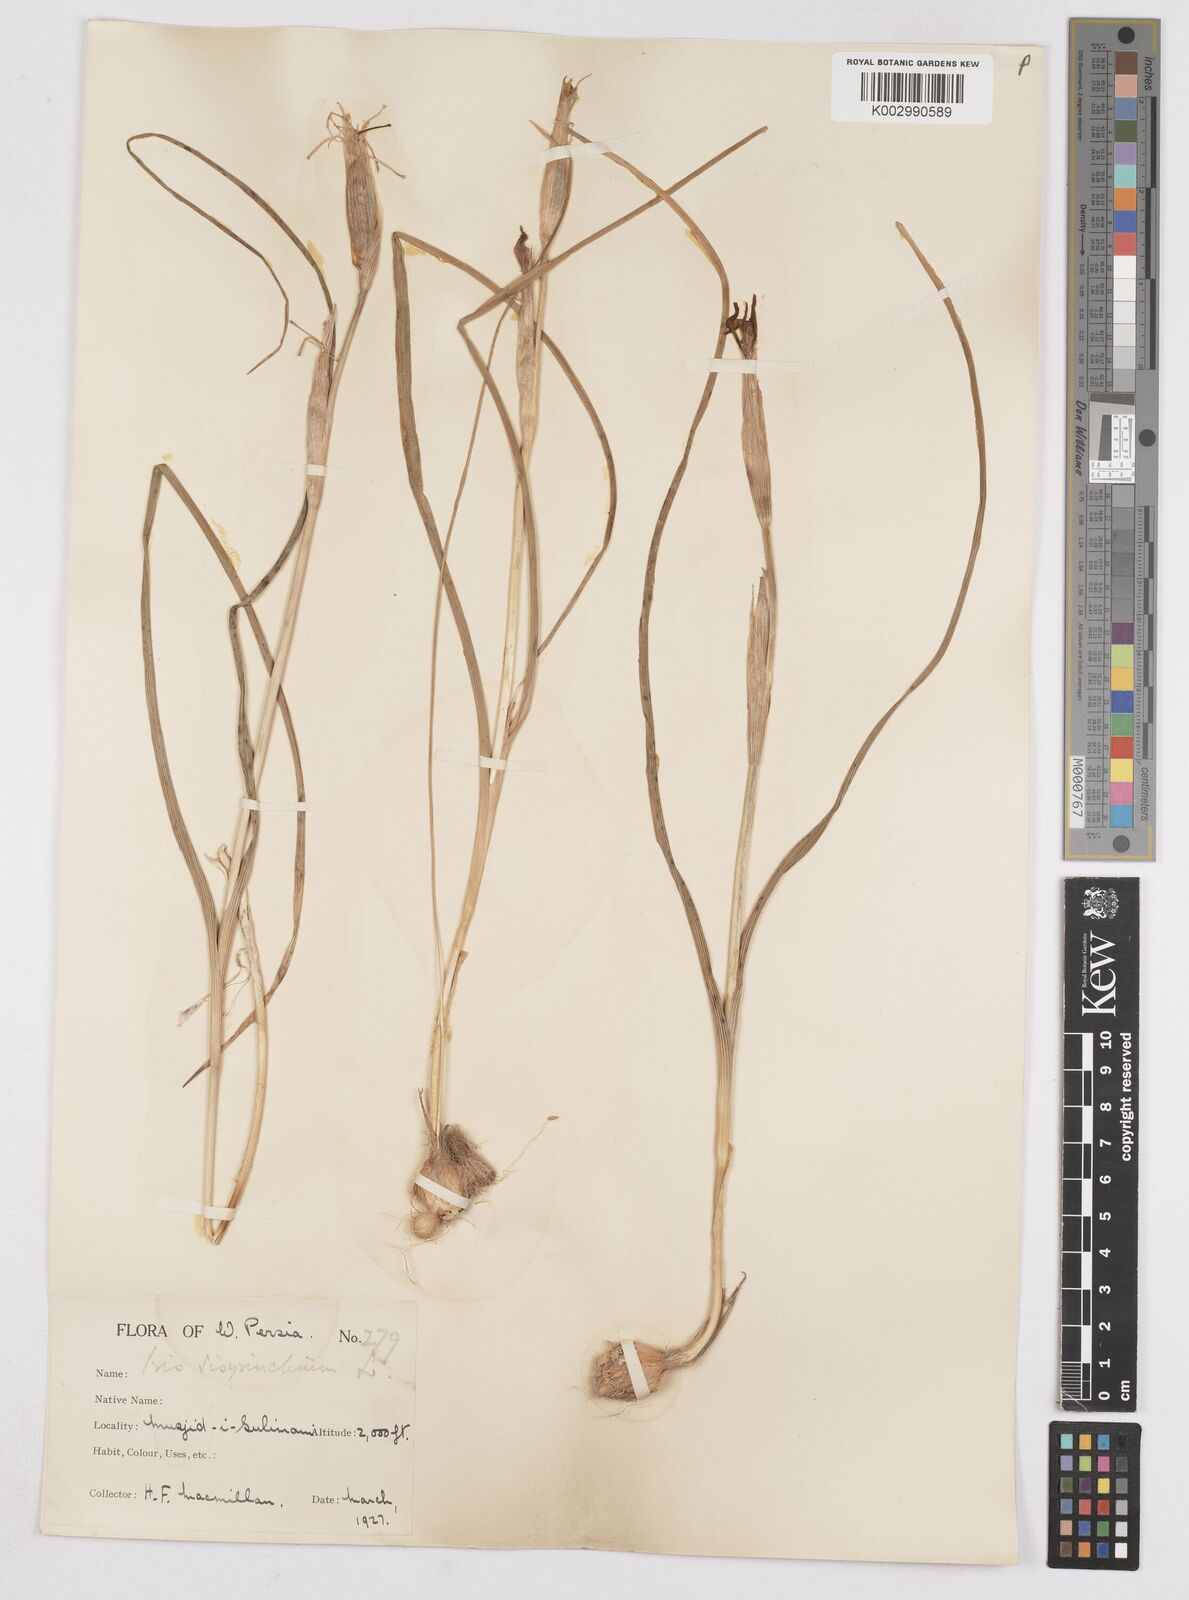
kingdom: Plantae
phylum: Tracheophyta
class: Liliopsida
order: Asparagales
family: Iridaceae
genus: Moraea
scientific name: Moraea sisyrinchium
